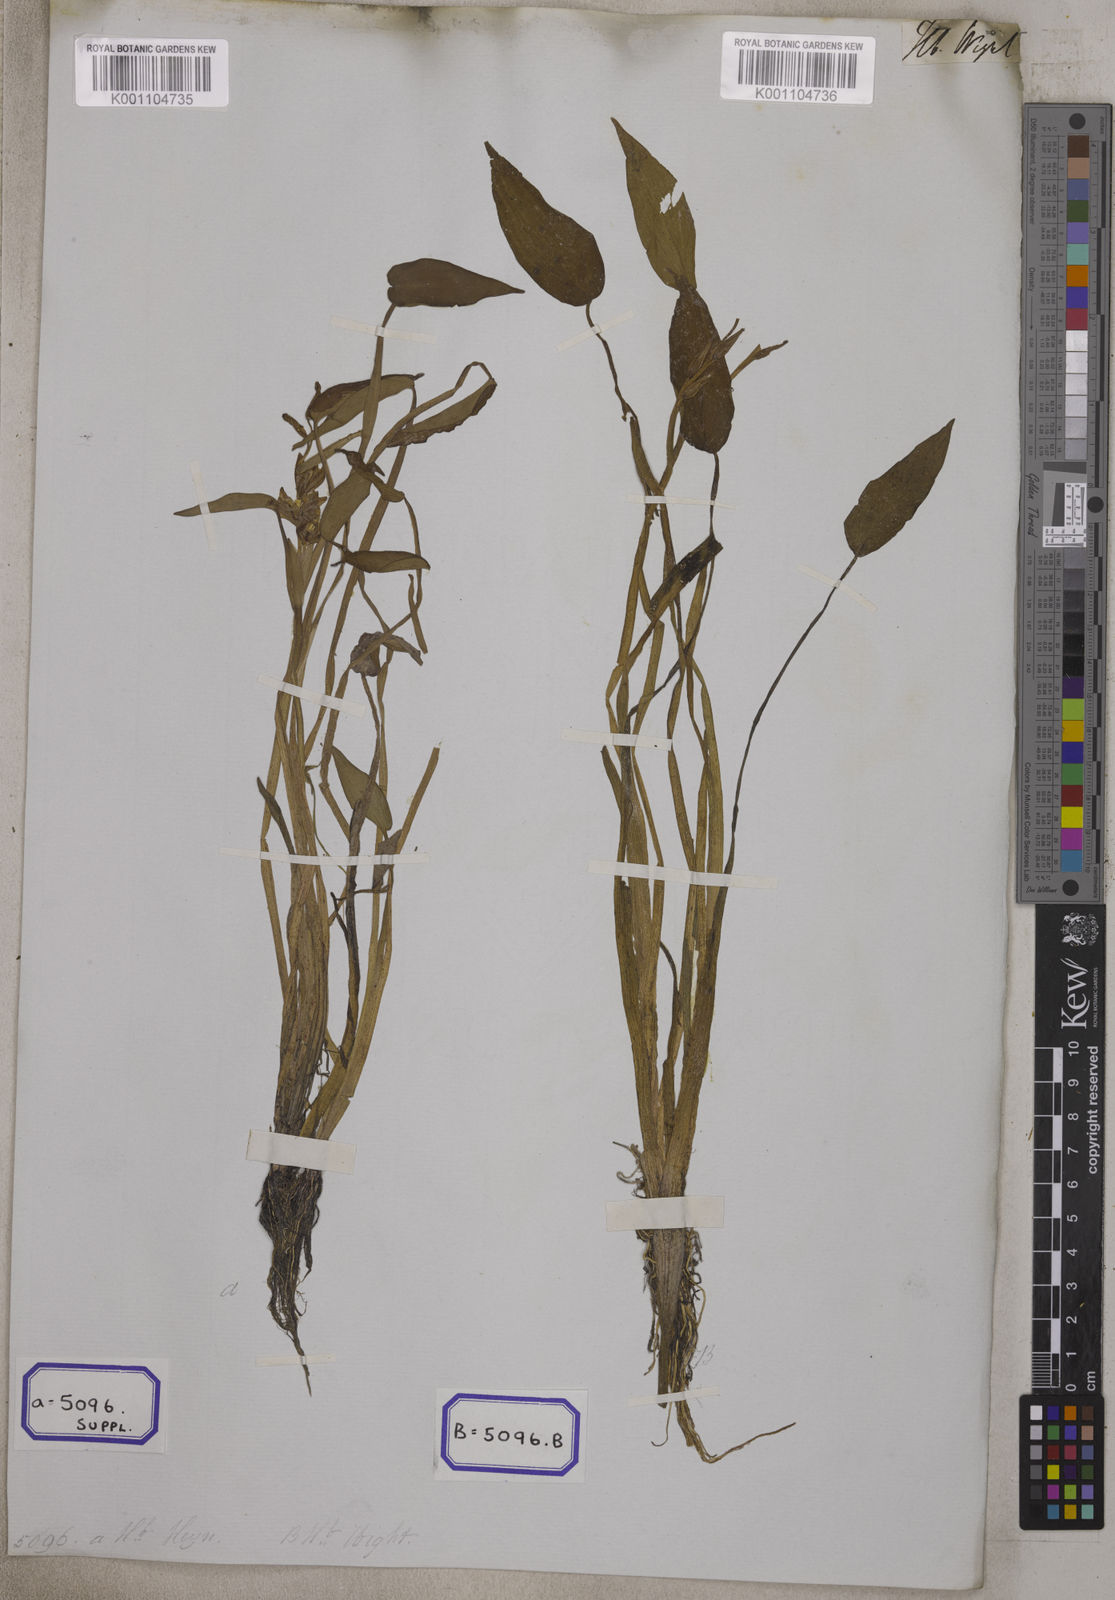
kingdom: Plantae
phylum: Tracheophyta
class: Liliopsida
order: Commelinales
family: Pontederiaceae
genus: Pontederia
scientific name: Pontederia plantaginea
